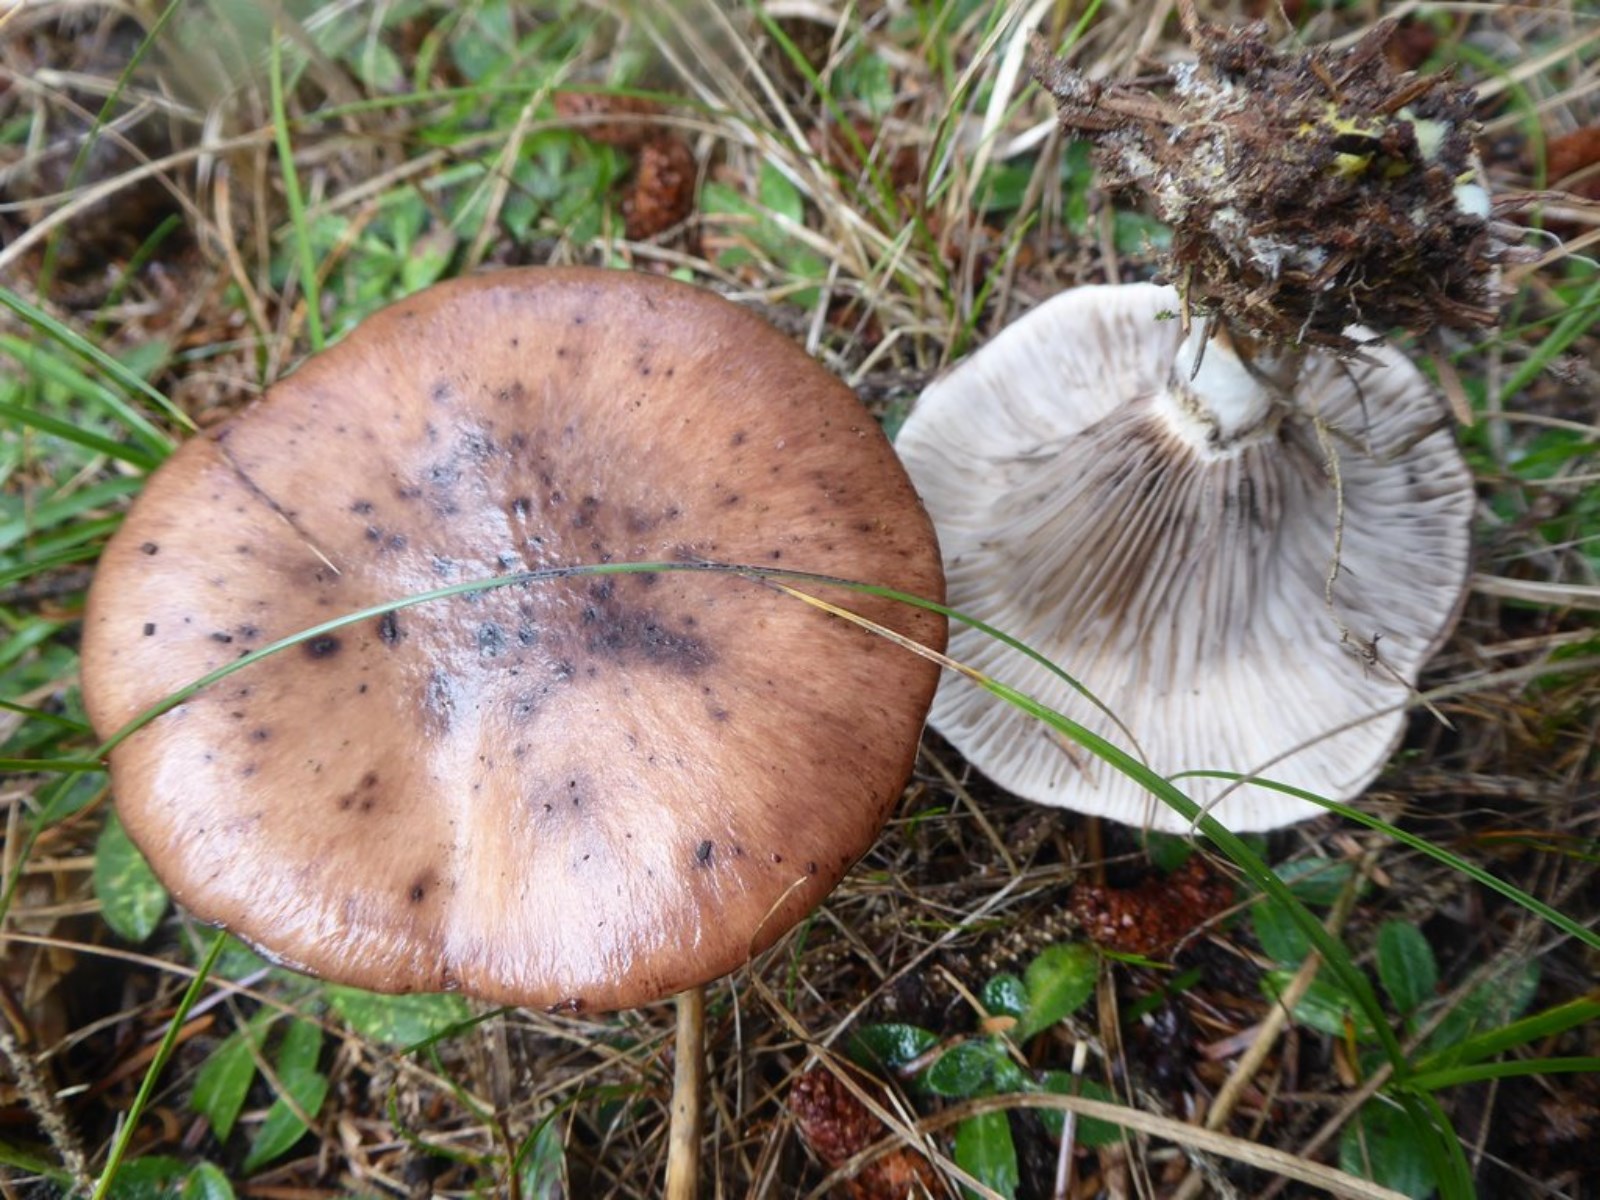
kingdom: Fungi
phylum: Basidiomycota
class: Agaricomycetes
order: Boletales
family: Gomphidiaceae
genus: Gomphidius
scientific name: Gomphidius glutinosus
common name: grå slimslør
